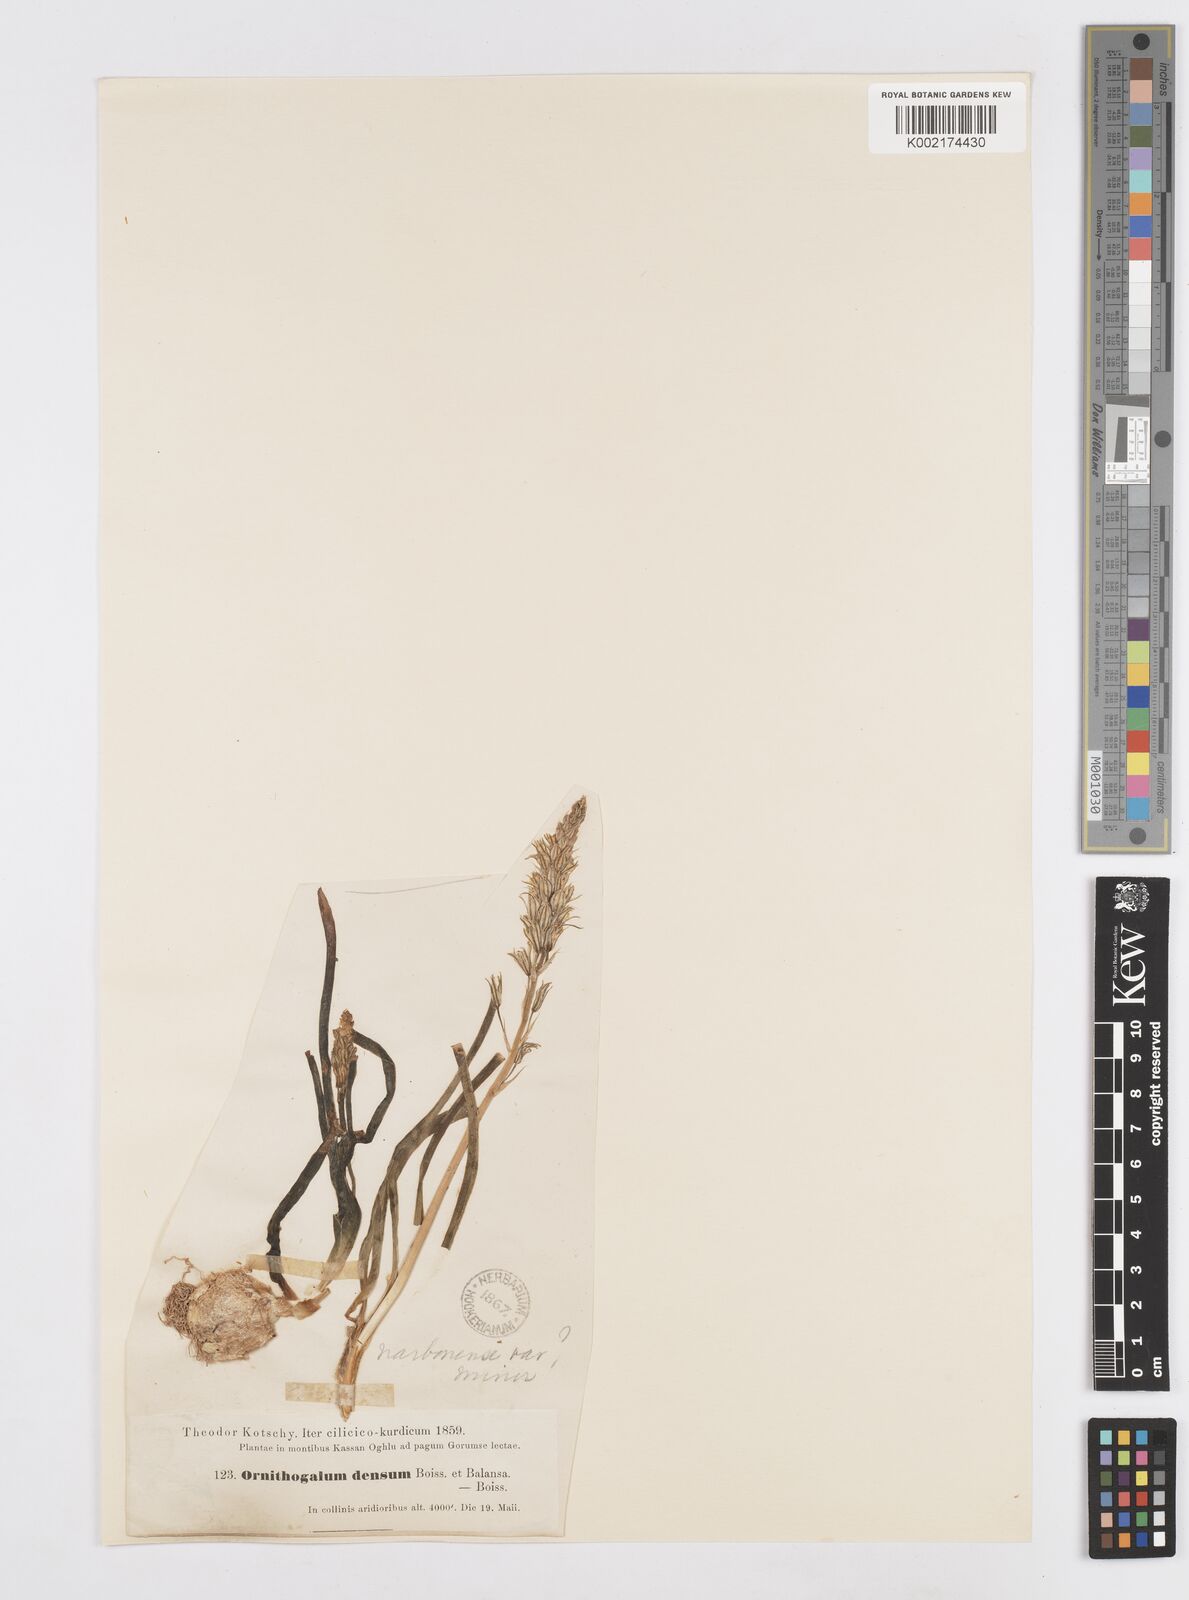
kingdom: Plantae
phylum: Tracheophyta
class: Liliopsida
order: Asparagales
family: Asparagaceae
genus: Ornithogalum
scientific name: Ornithogalum narbonense
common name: Bath-asparagus
